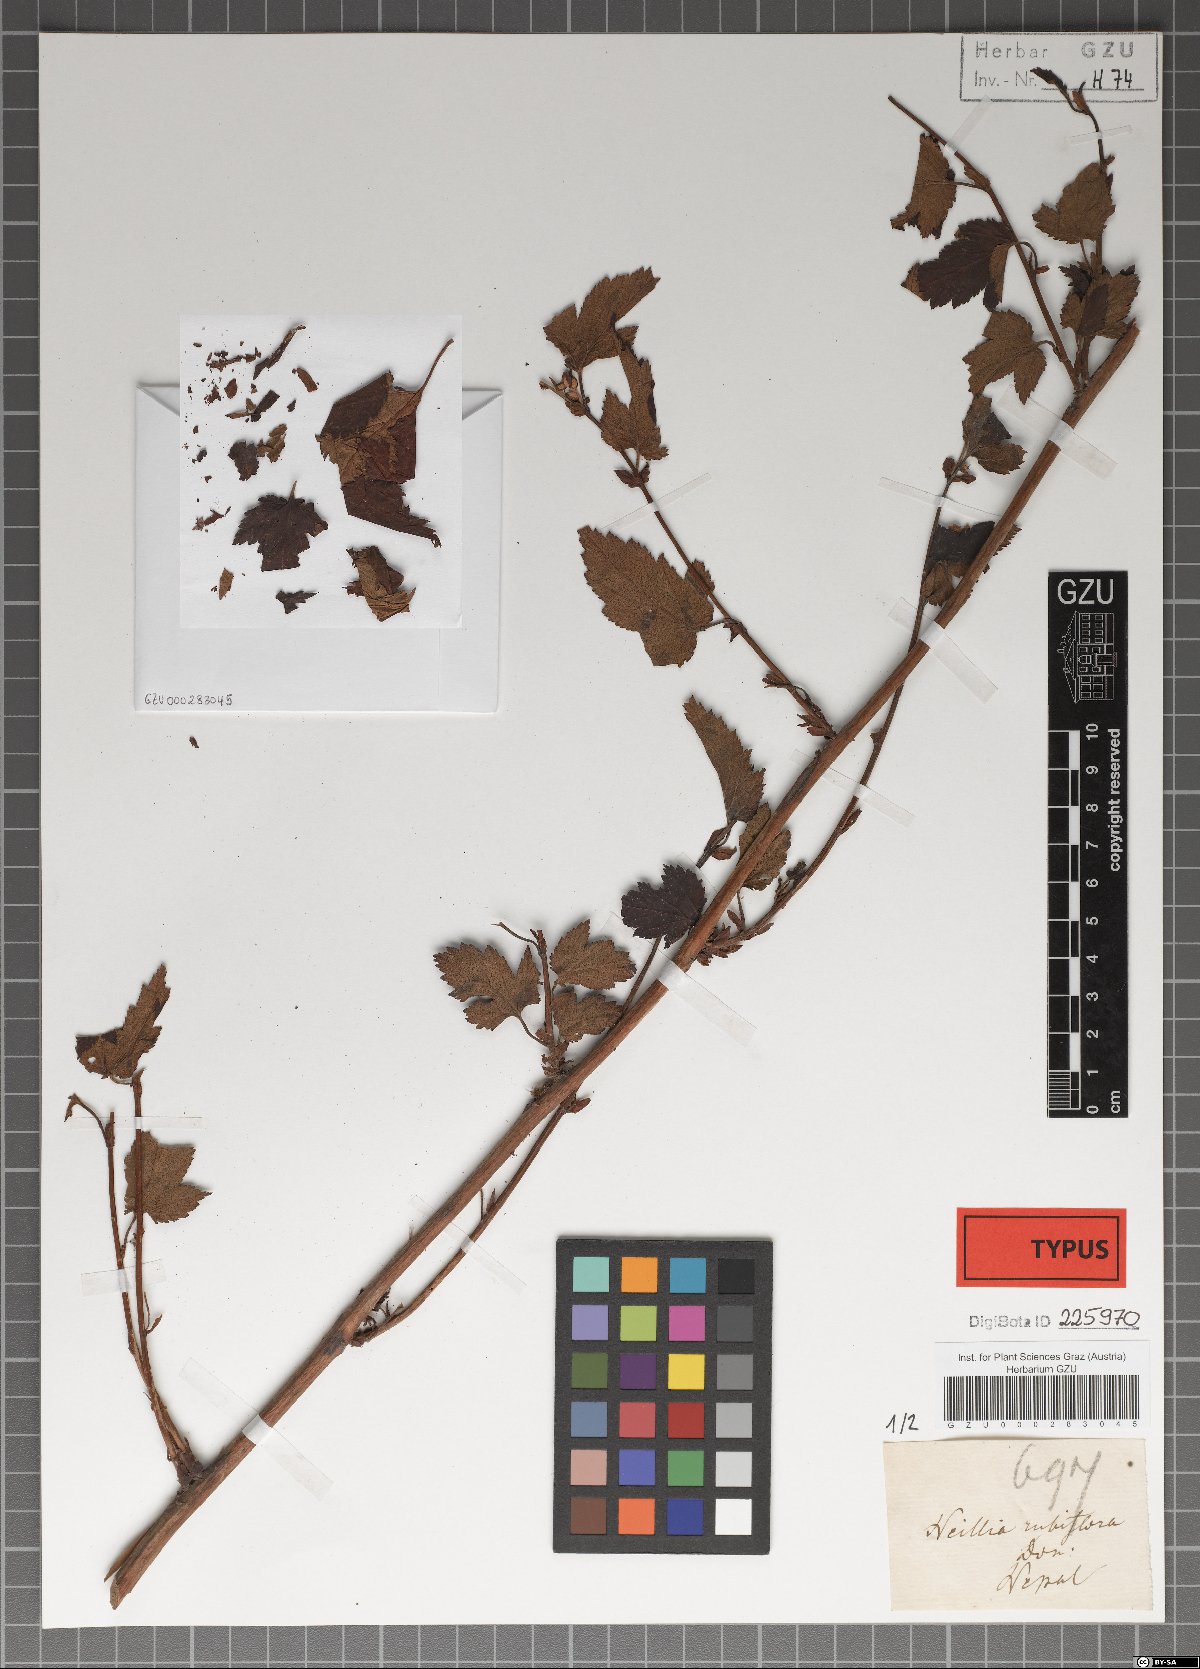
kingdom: Plantae
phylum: Tracheophyta
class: Magnoliopsida
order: Rosales
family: Rosaceae
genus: Neillia
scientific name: Neillia rubiflora
